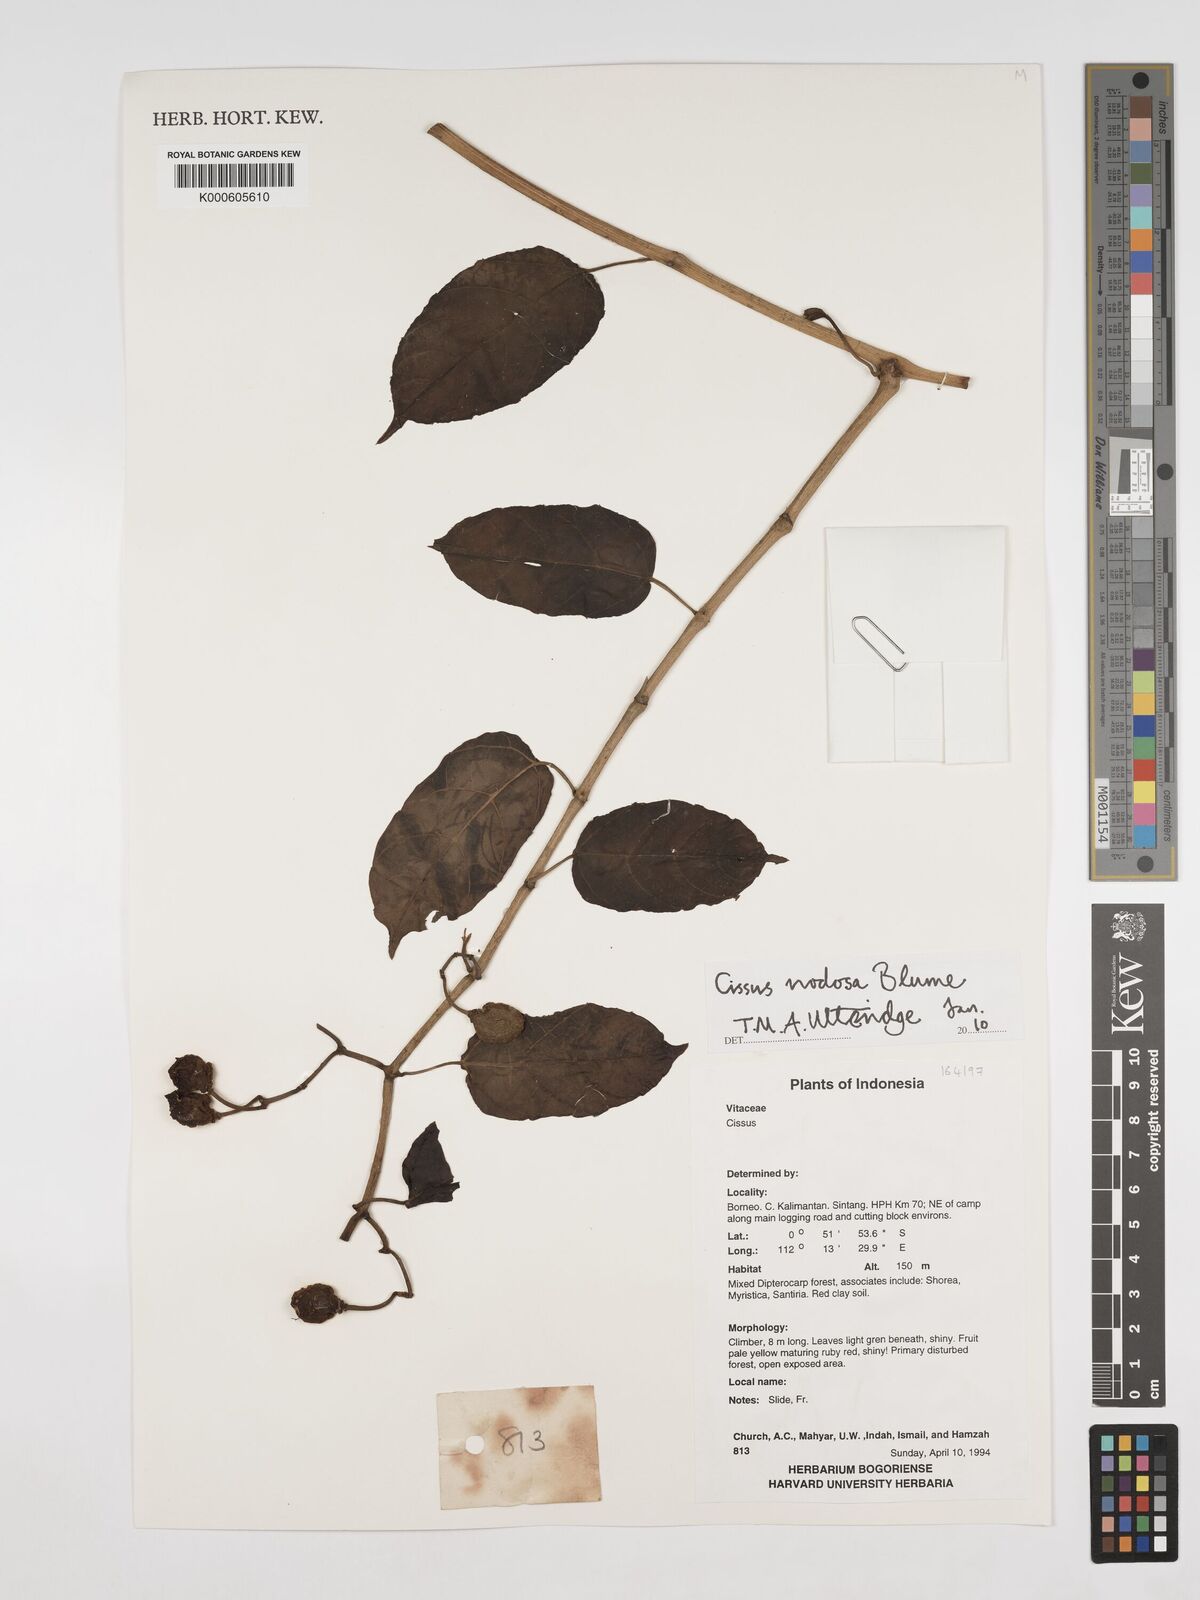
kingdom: Plantae
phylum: Tracheophyta
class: Magnoliopsida
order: Vitales
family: Vitaceae
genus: Cissus
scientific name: Cissus nodosa
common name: Grape ivy
